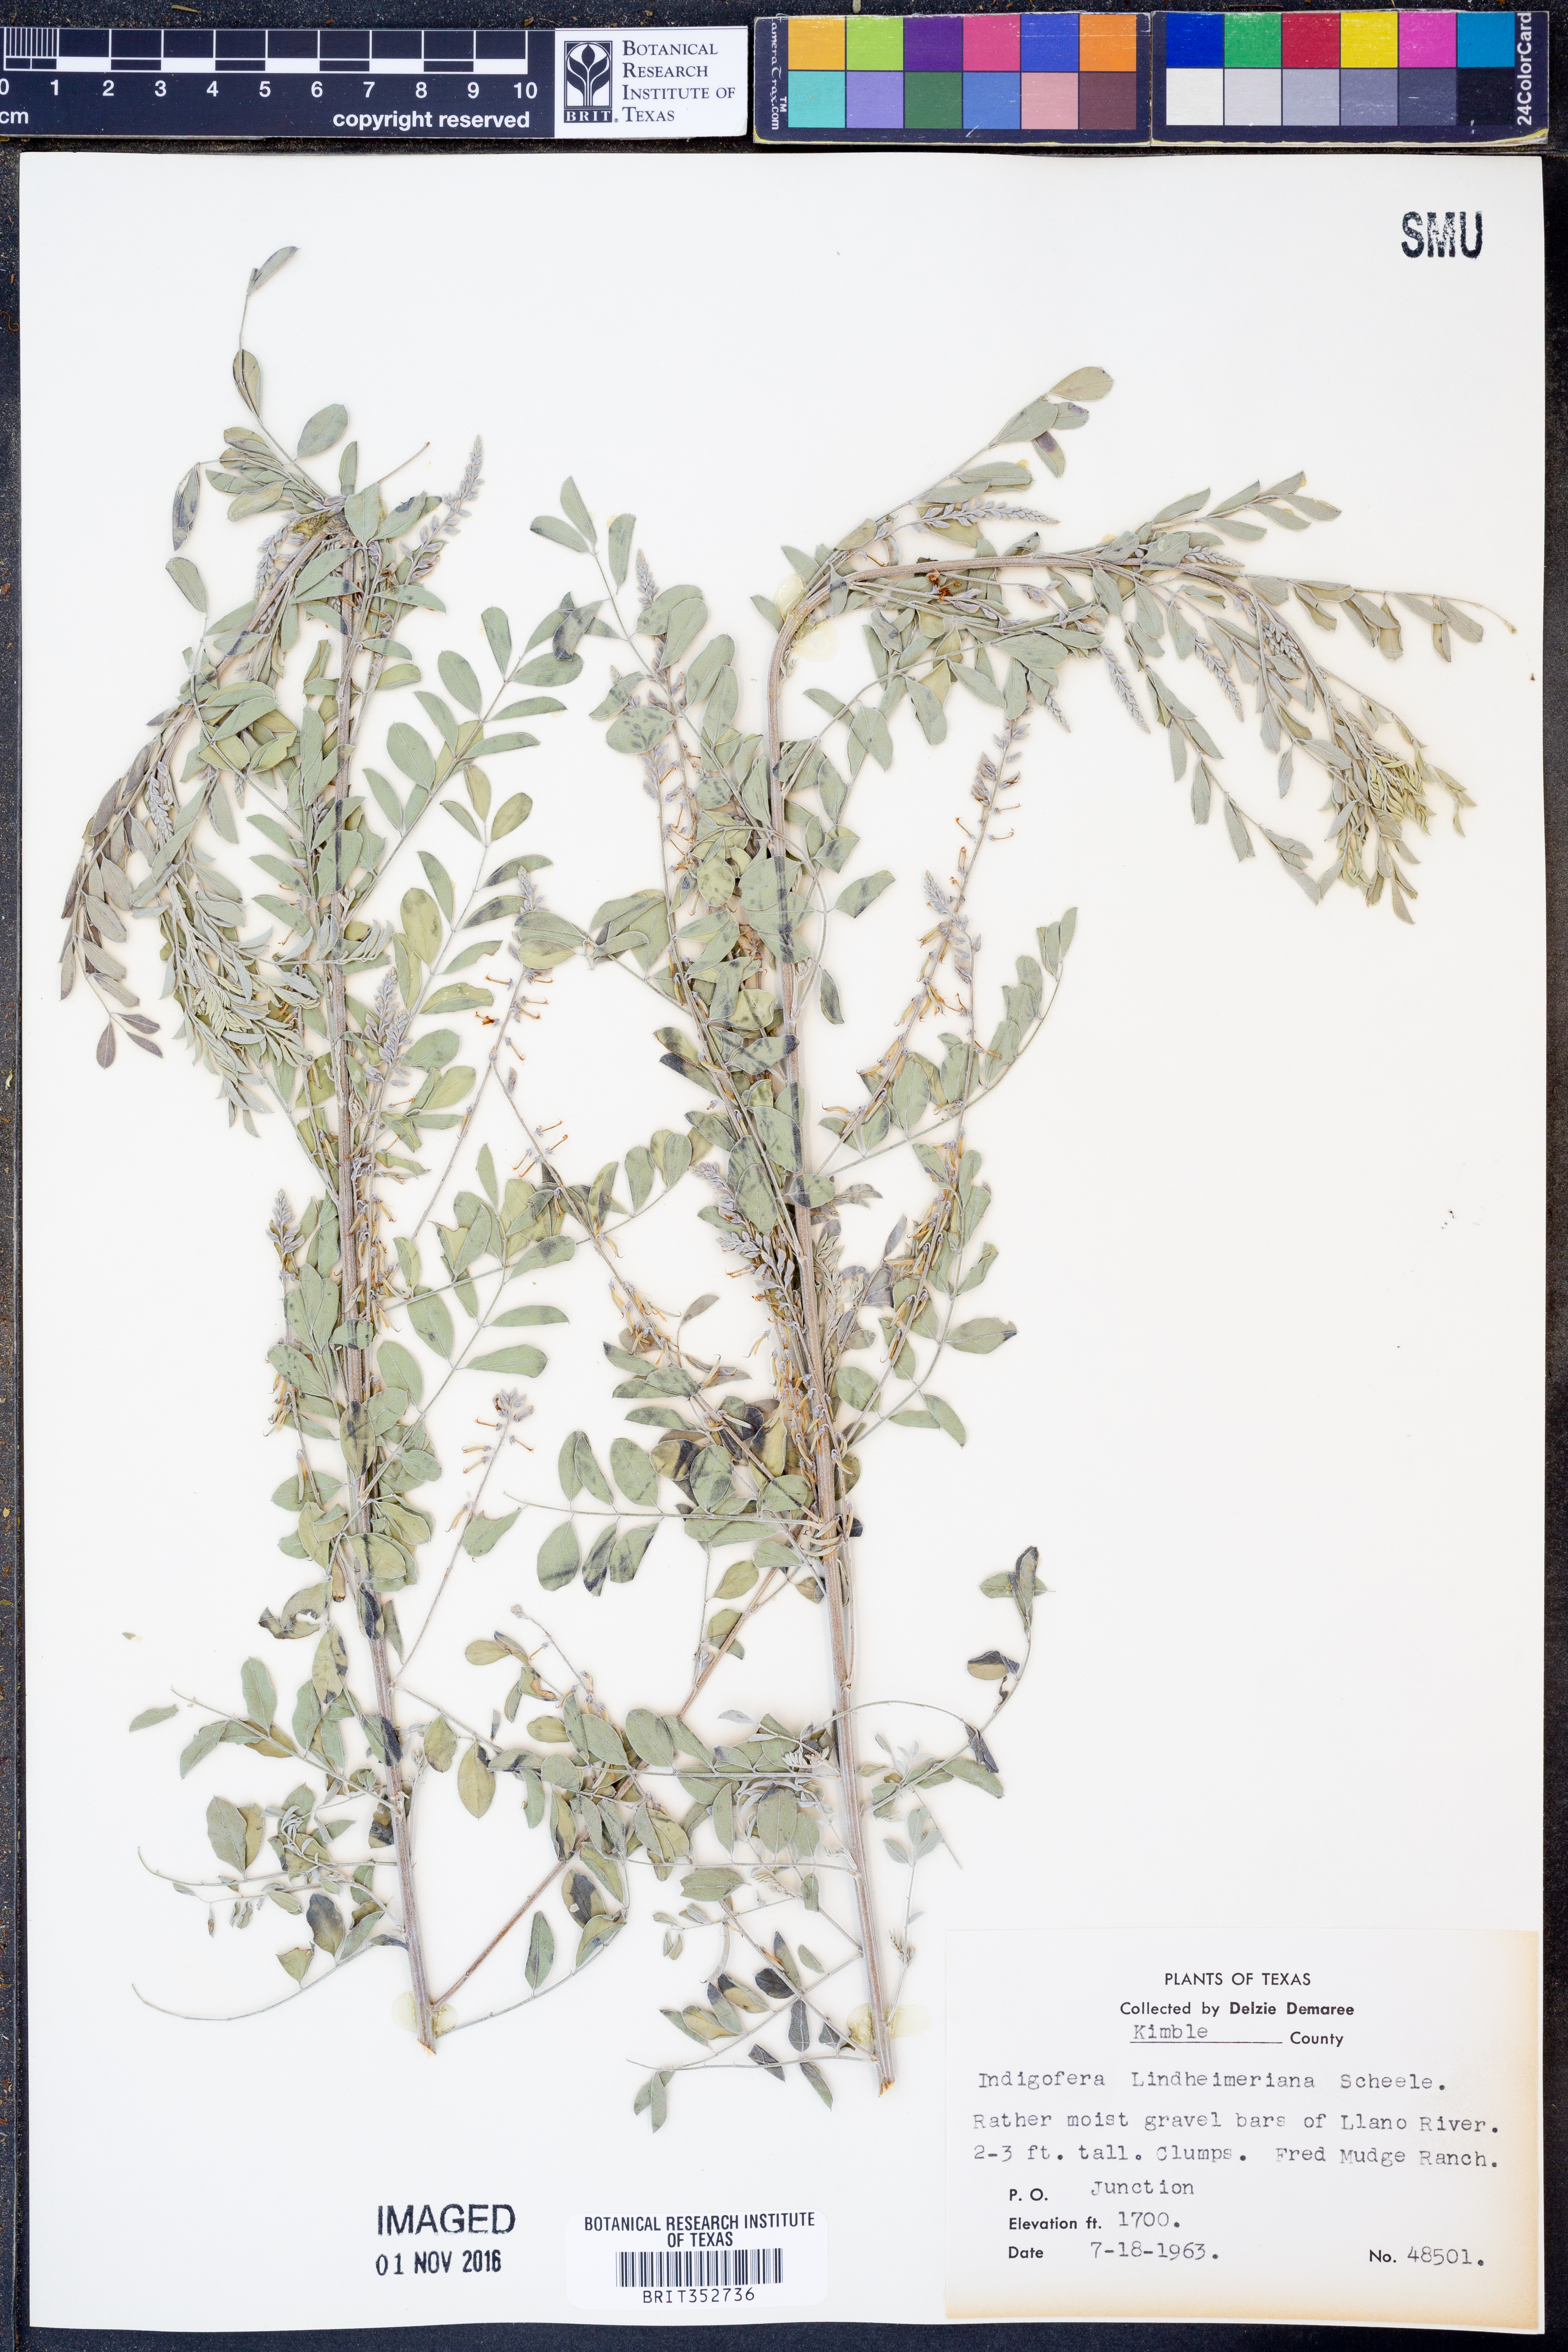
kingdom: Plantae
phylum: Tracheophyta
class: Magnoliopsida
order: Fabales
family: Fabaceae
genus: Indigofera
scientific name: Indigofera lindheimeriana
